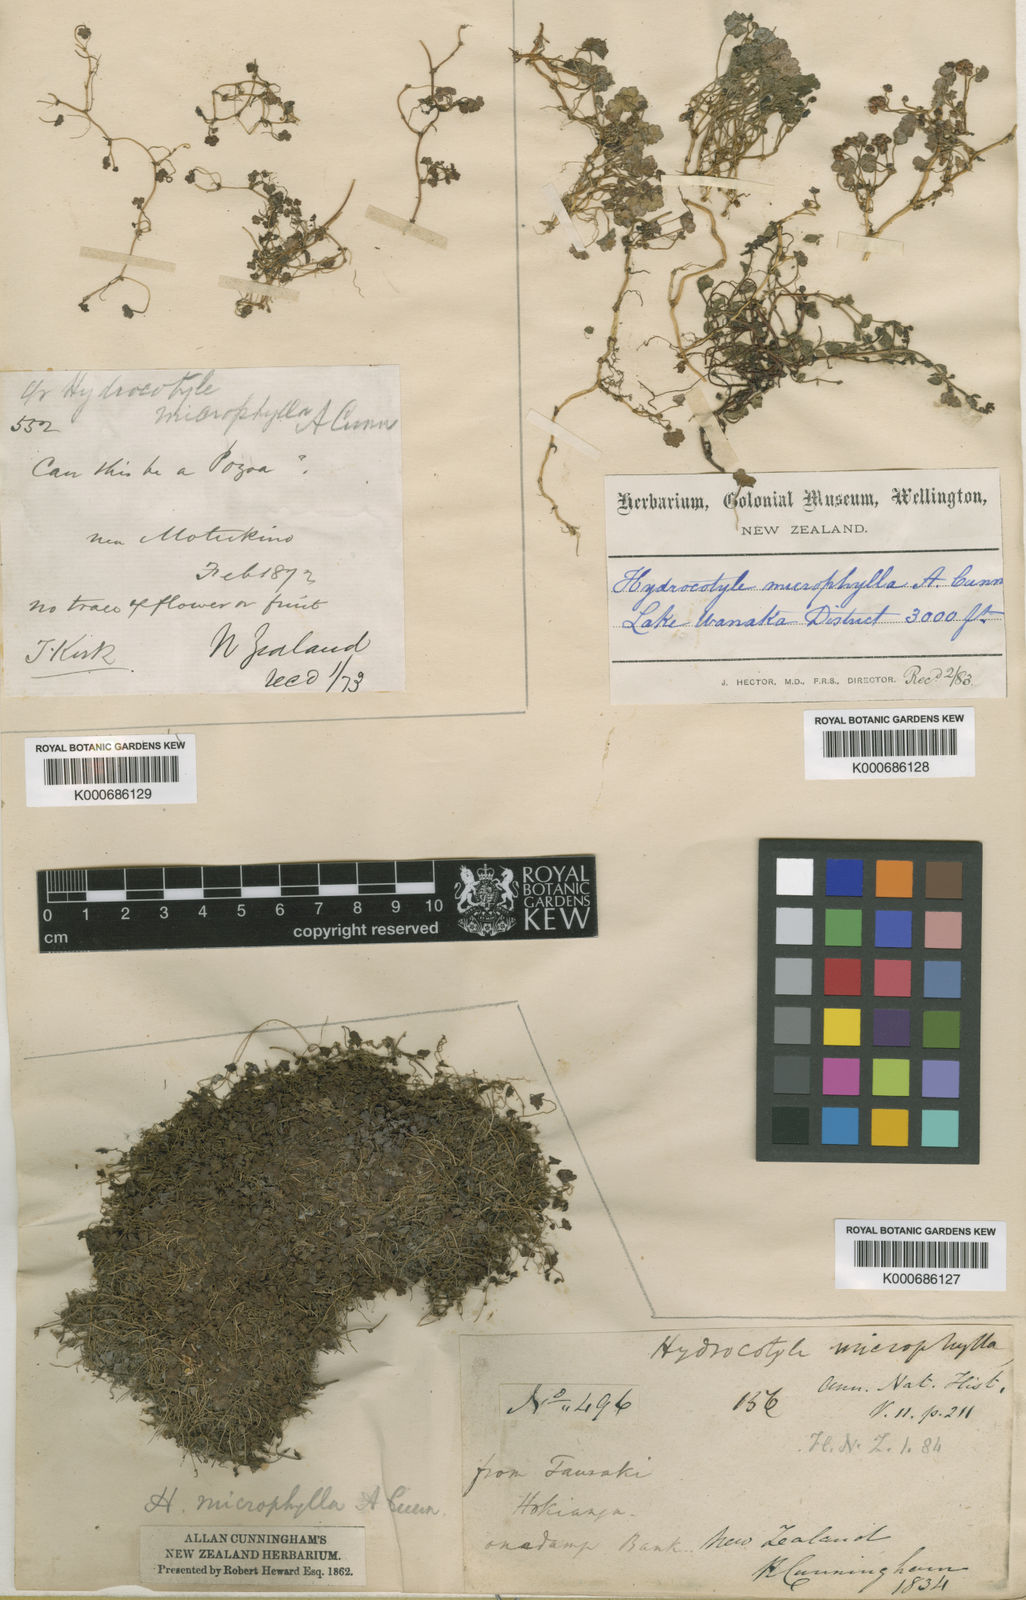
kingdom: Plantae
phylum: Tracheophyta
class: Magnoliopsida
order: Apiales
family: Araliaceae
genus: Hydrocotyle
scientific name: Hydrocotyle microphylla
